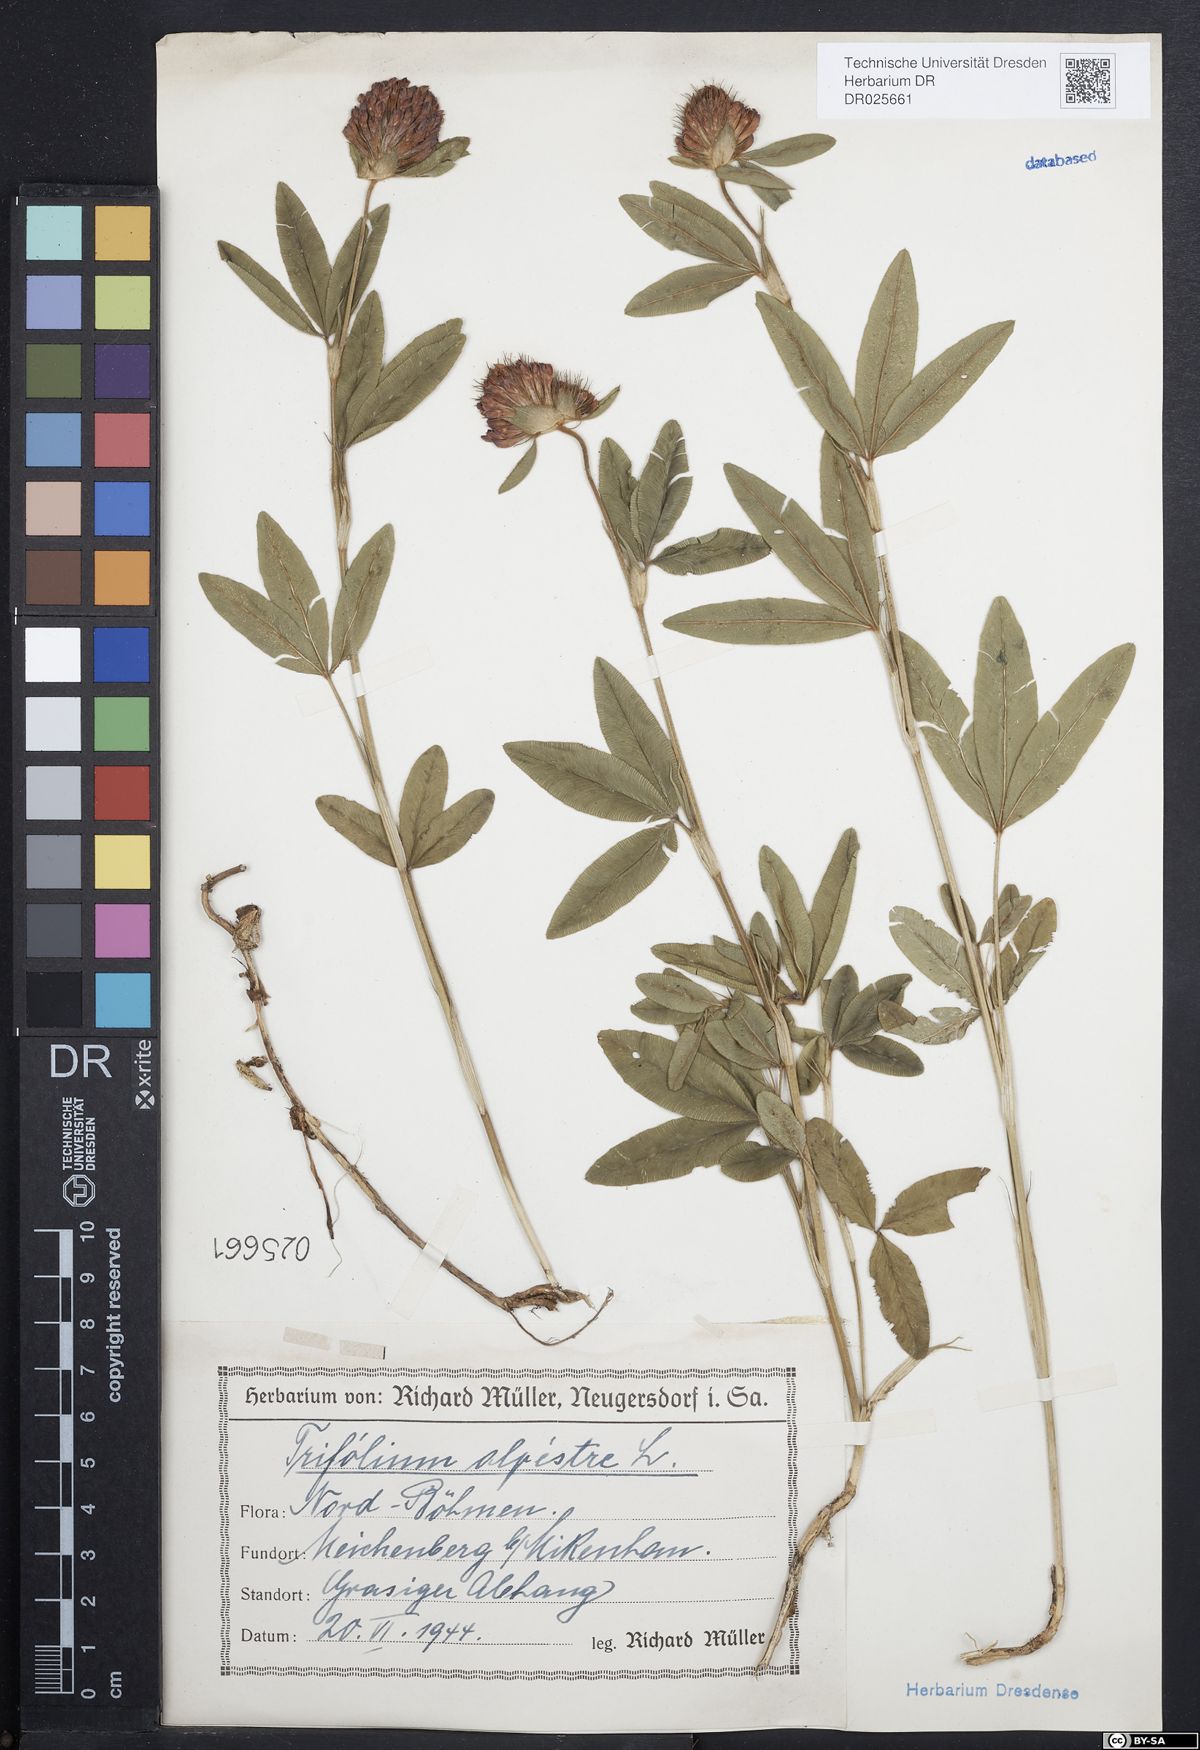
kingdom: Plantae
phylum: Tracheophyta
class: Magnoliopsida
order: Fabales
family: Fabaceae
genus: Trifolium
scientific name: Trifolium alpestre
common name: Owl-head clover
